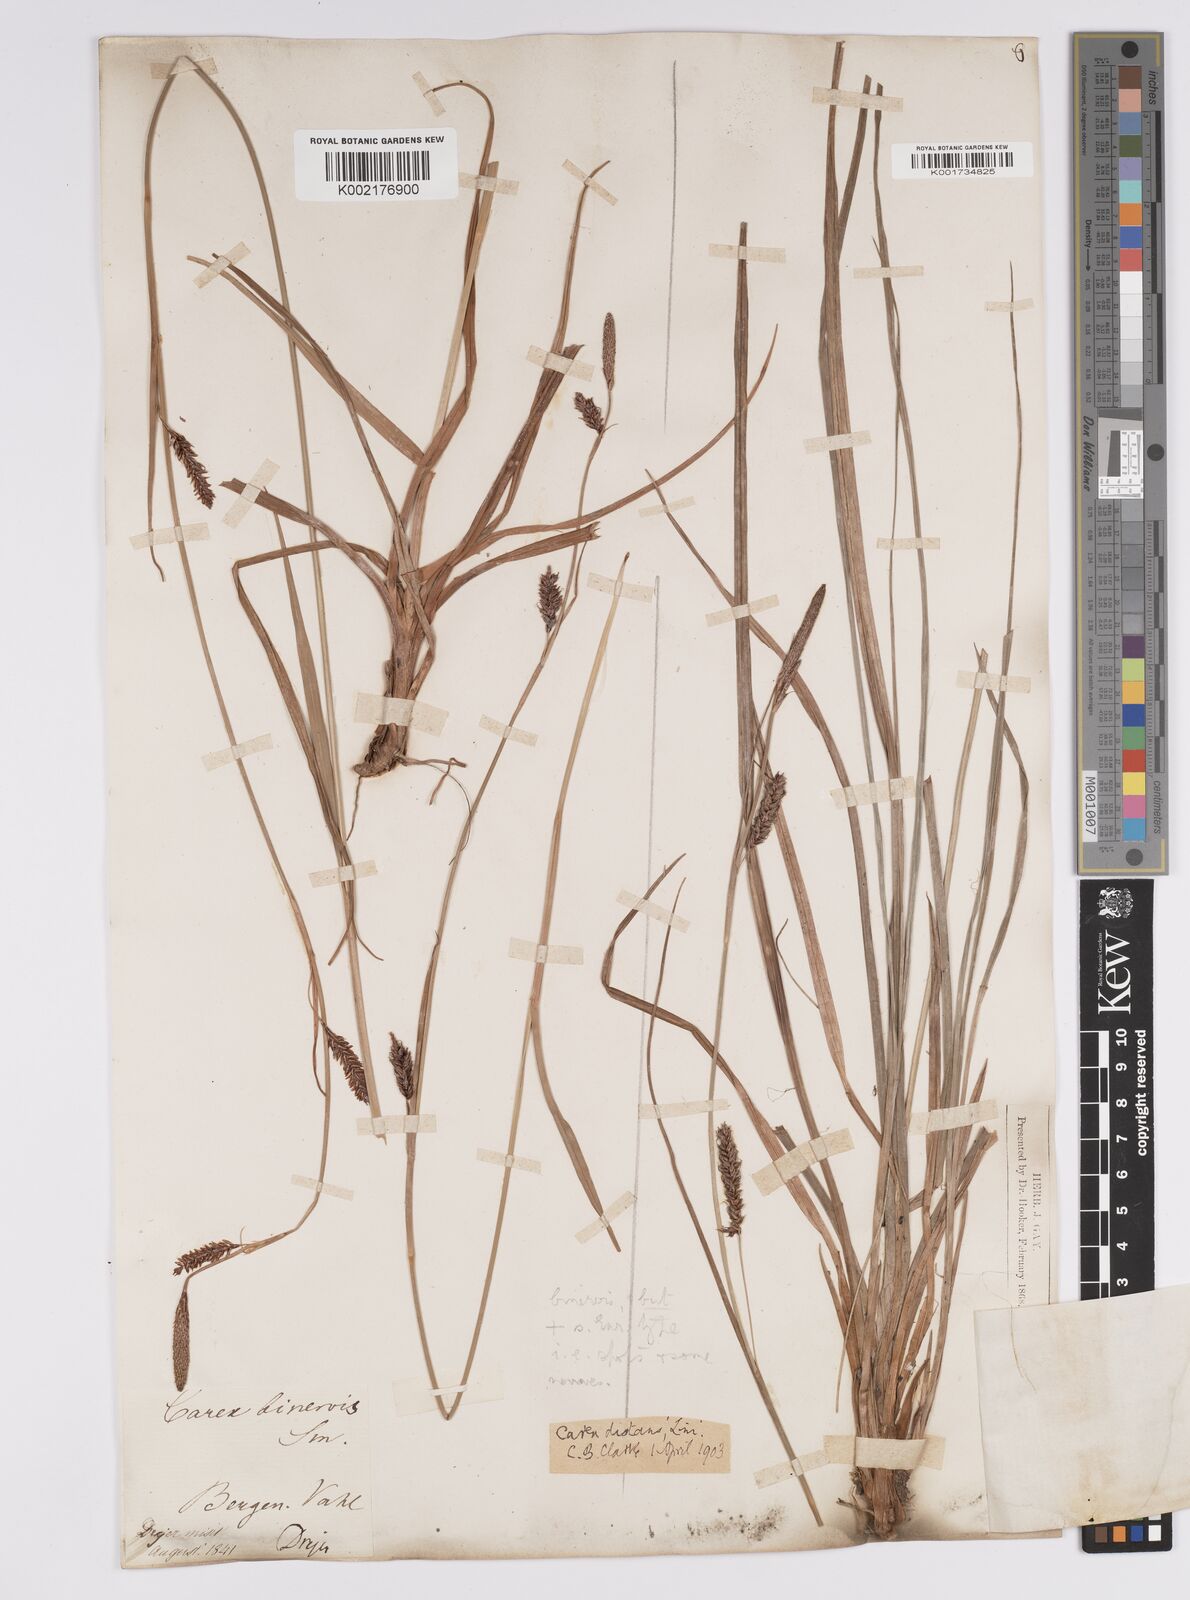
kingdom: Plantae
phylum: Tracheophyta
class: Liliopsida
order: Poales
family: Cyperaceae
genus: Carex
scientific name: Carex binervis
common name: Green-ribbed sedge
